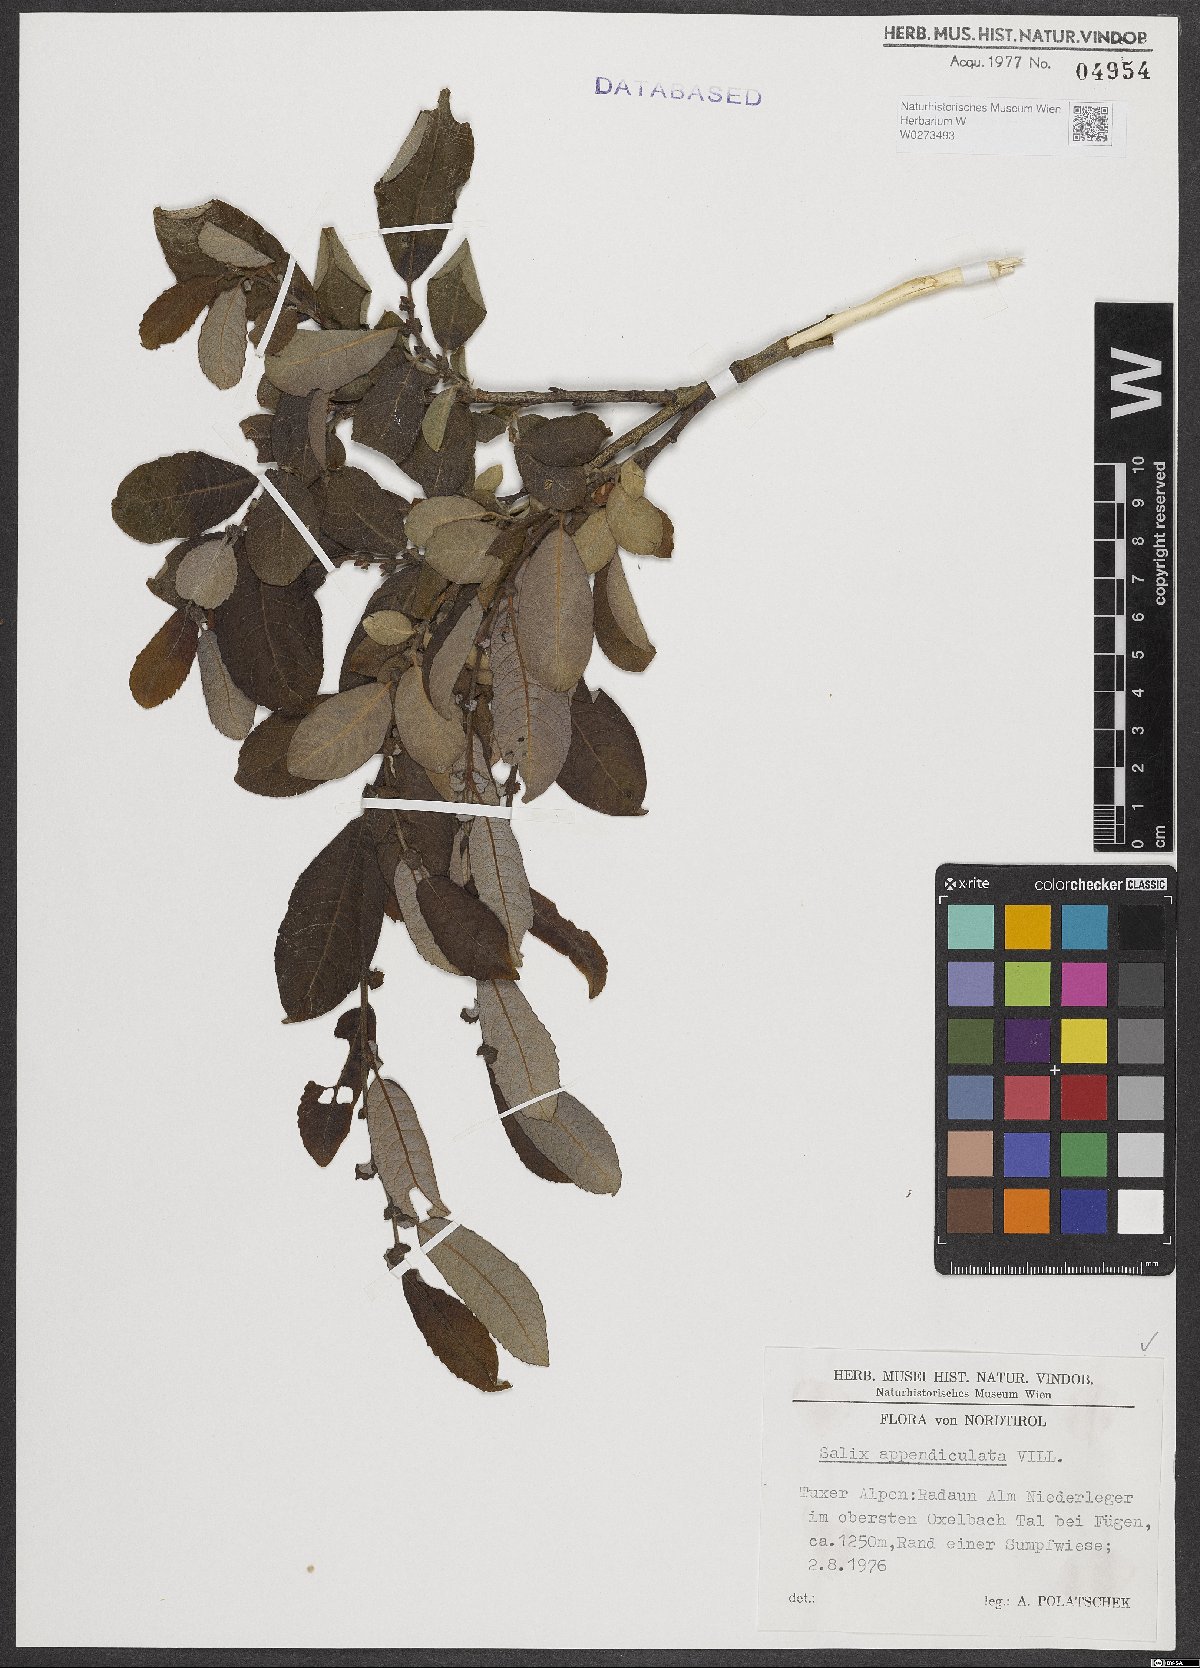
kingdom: Plantae
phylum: Tracheophyta
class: Magnoliopsida
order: Malpighiales
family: Salicaceae
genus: Salix
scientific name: Salix appendiculata
